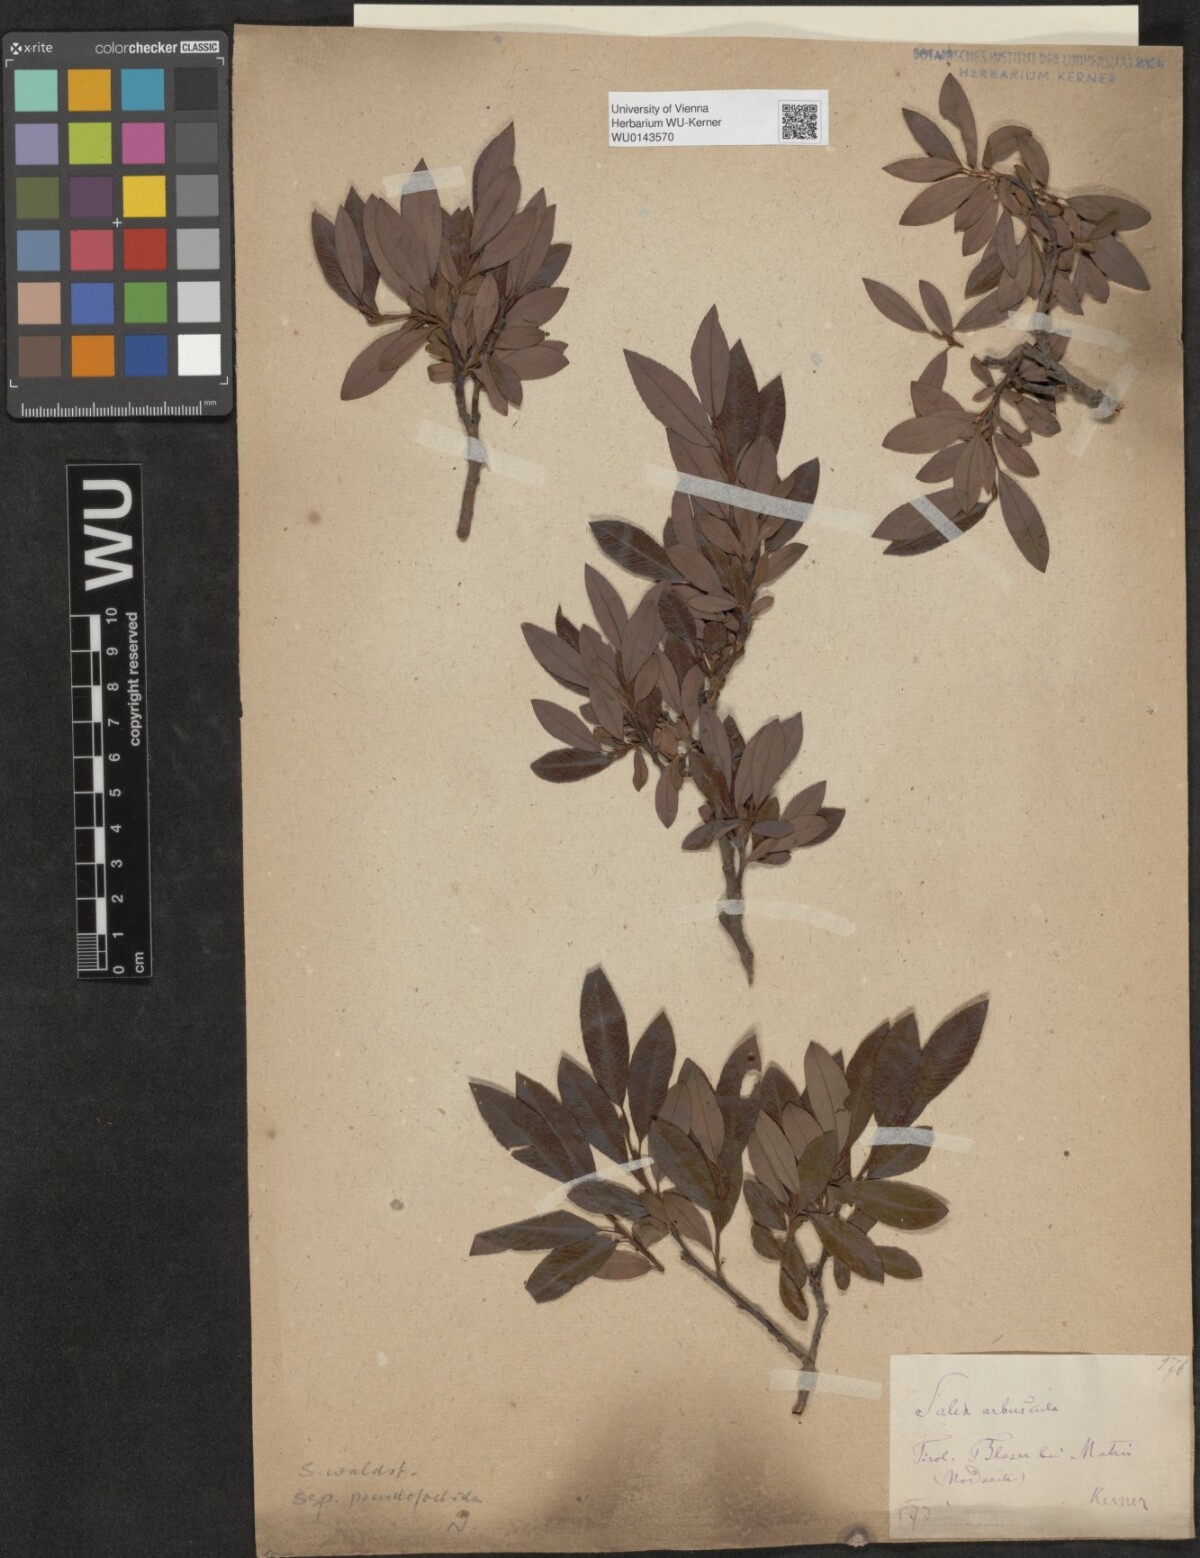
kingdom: Plantae
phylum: Tracheophyta
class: Magnoliopsida
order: Malpighiales
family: Salicaceae
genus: Salix
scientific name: Salix waldsteiniana
